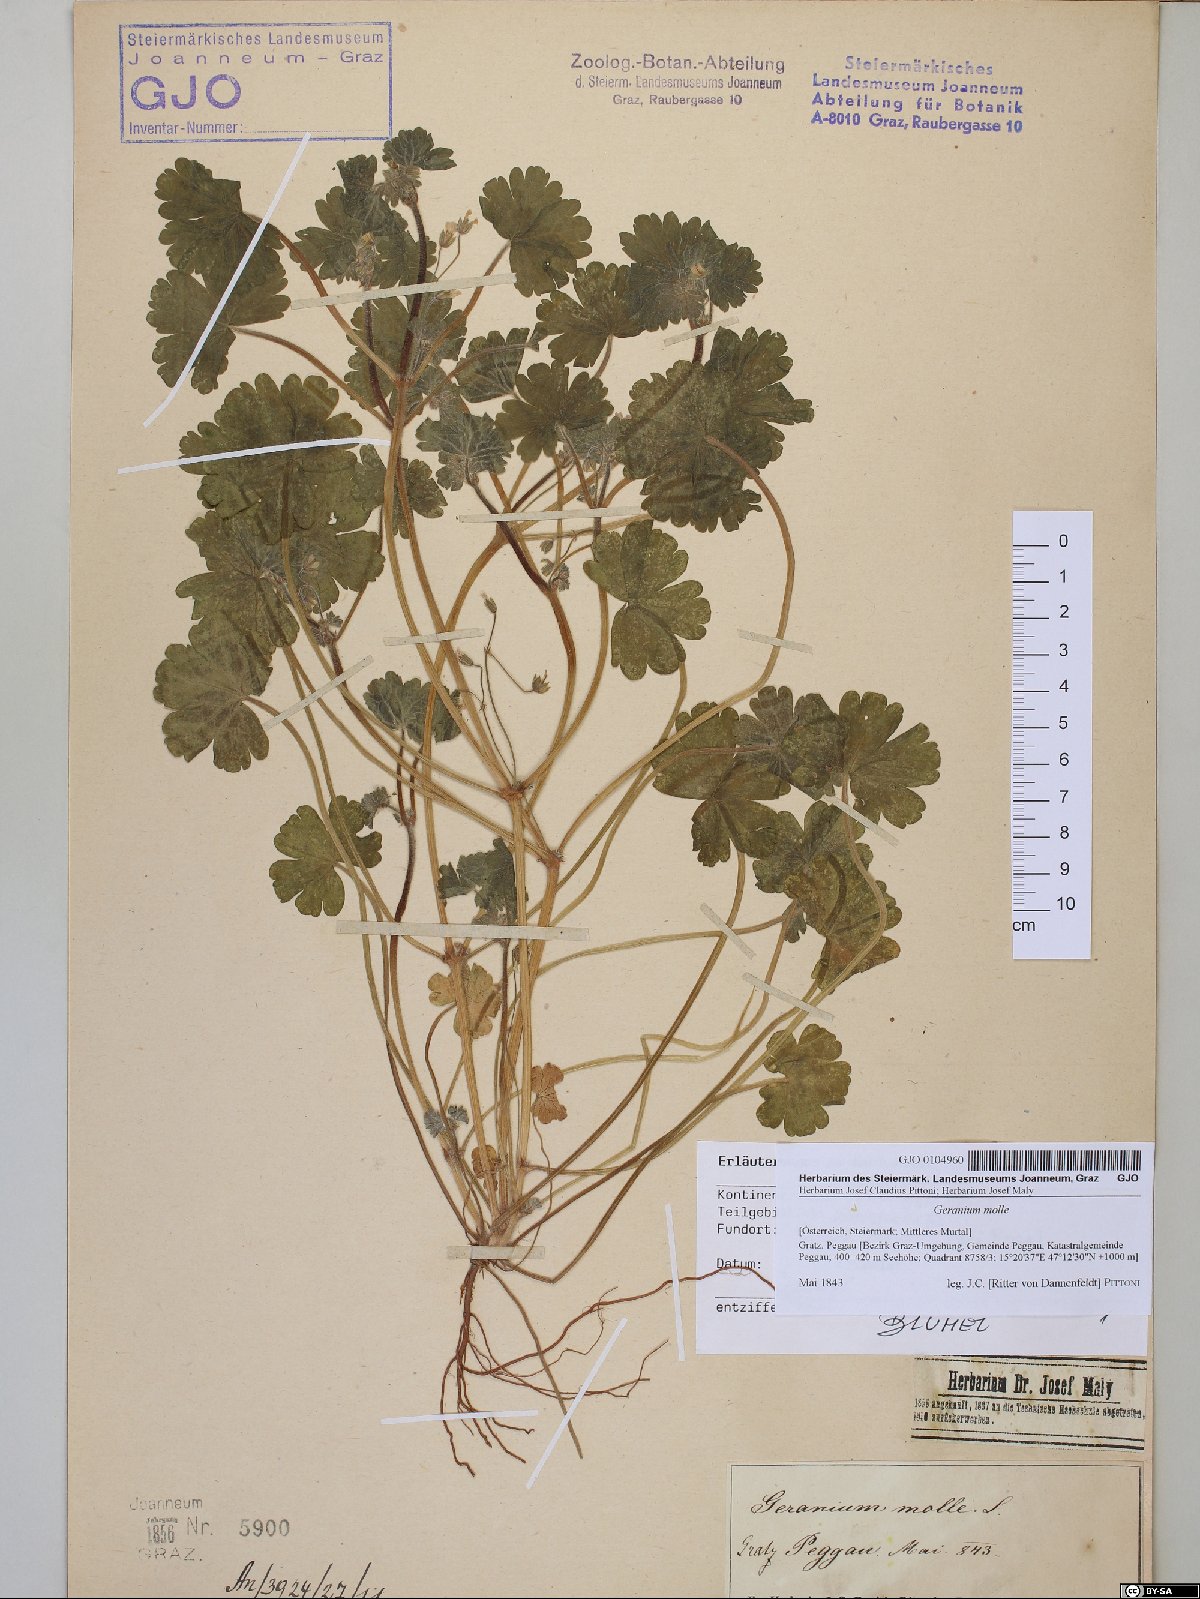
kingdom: Plantae
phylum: Tracheophyta
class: Magnoliopsida
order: Geraniales
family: Geraniaceae
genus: Geranium
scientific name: Geranium molle
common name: Dove's-foot crane's-bill
